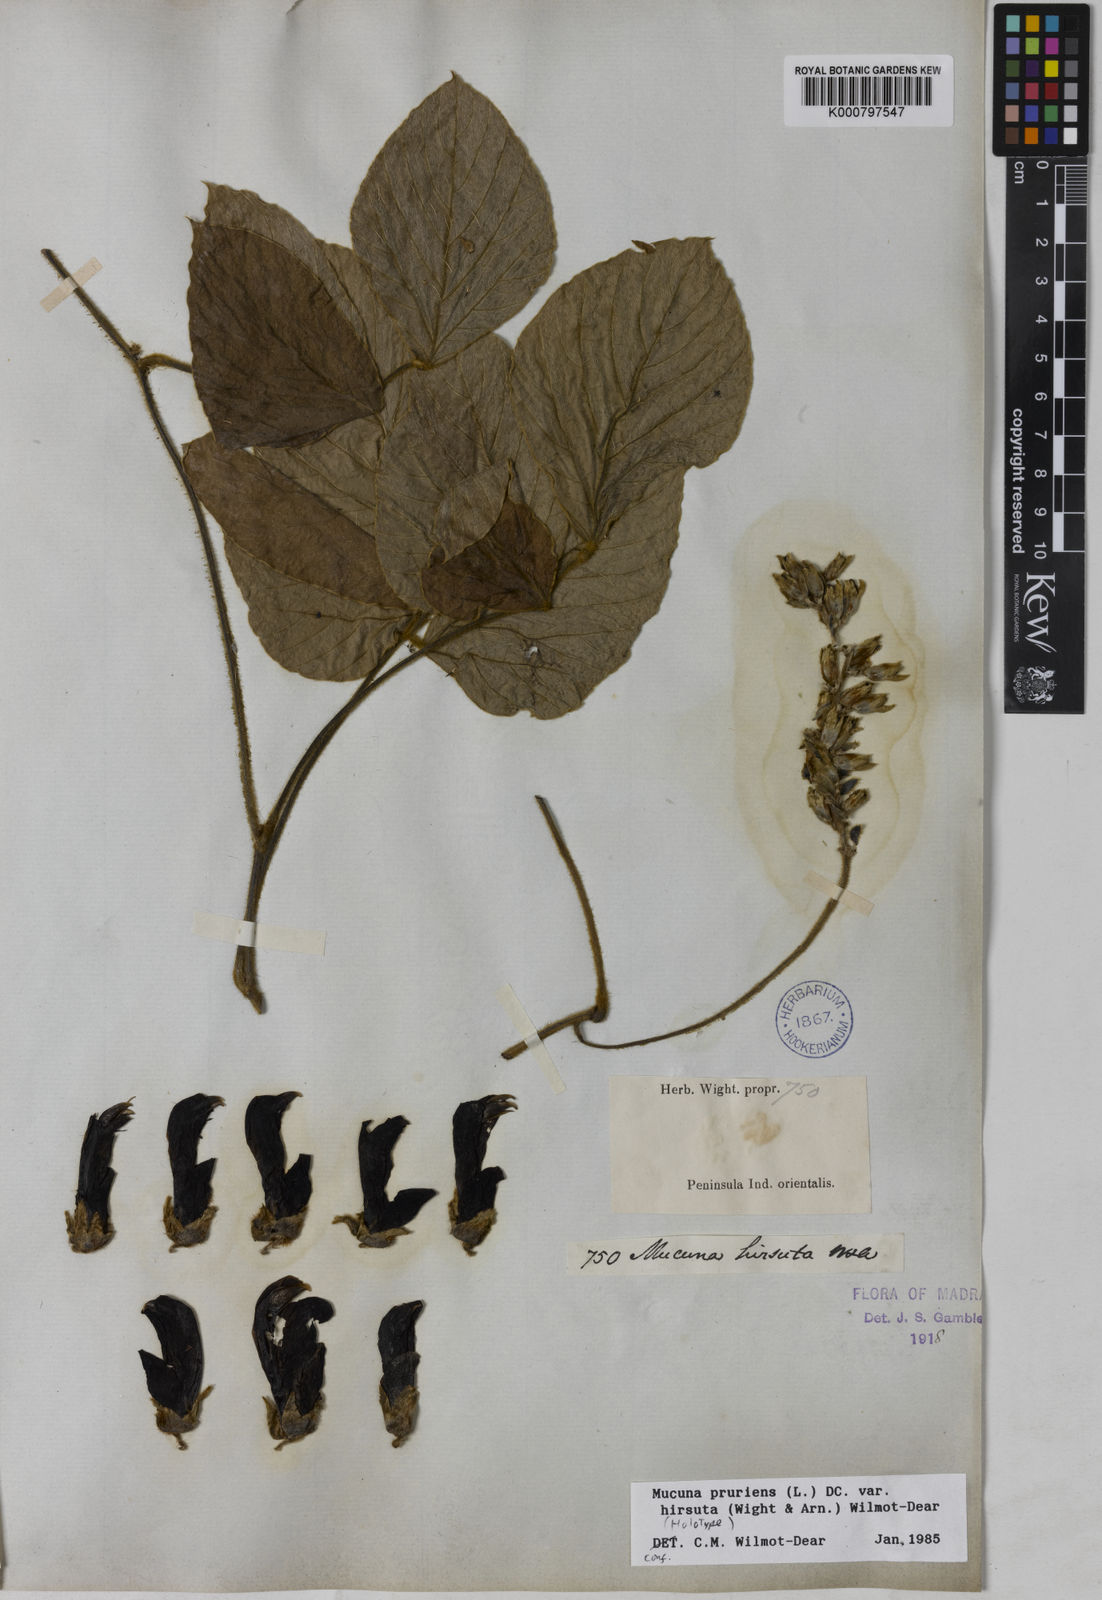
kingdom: Plantae
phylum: Tracheophyta
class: Magnoliopsida
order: Fabales
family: Fabaceae
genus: Mucuna
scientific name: Mucuna pruriens
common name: Cow-itch
